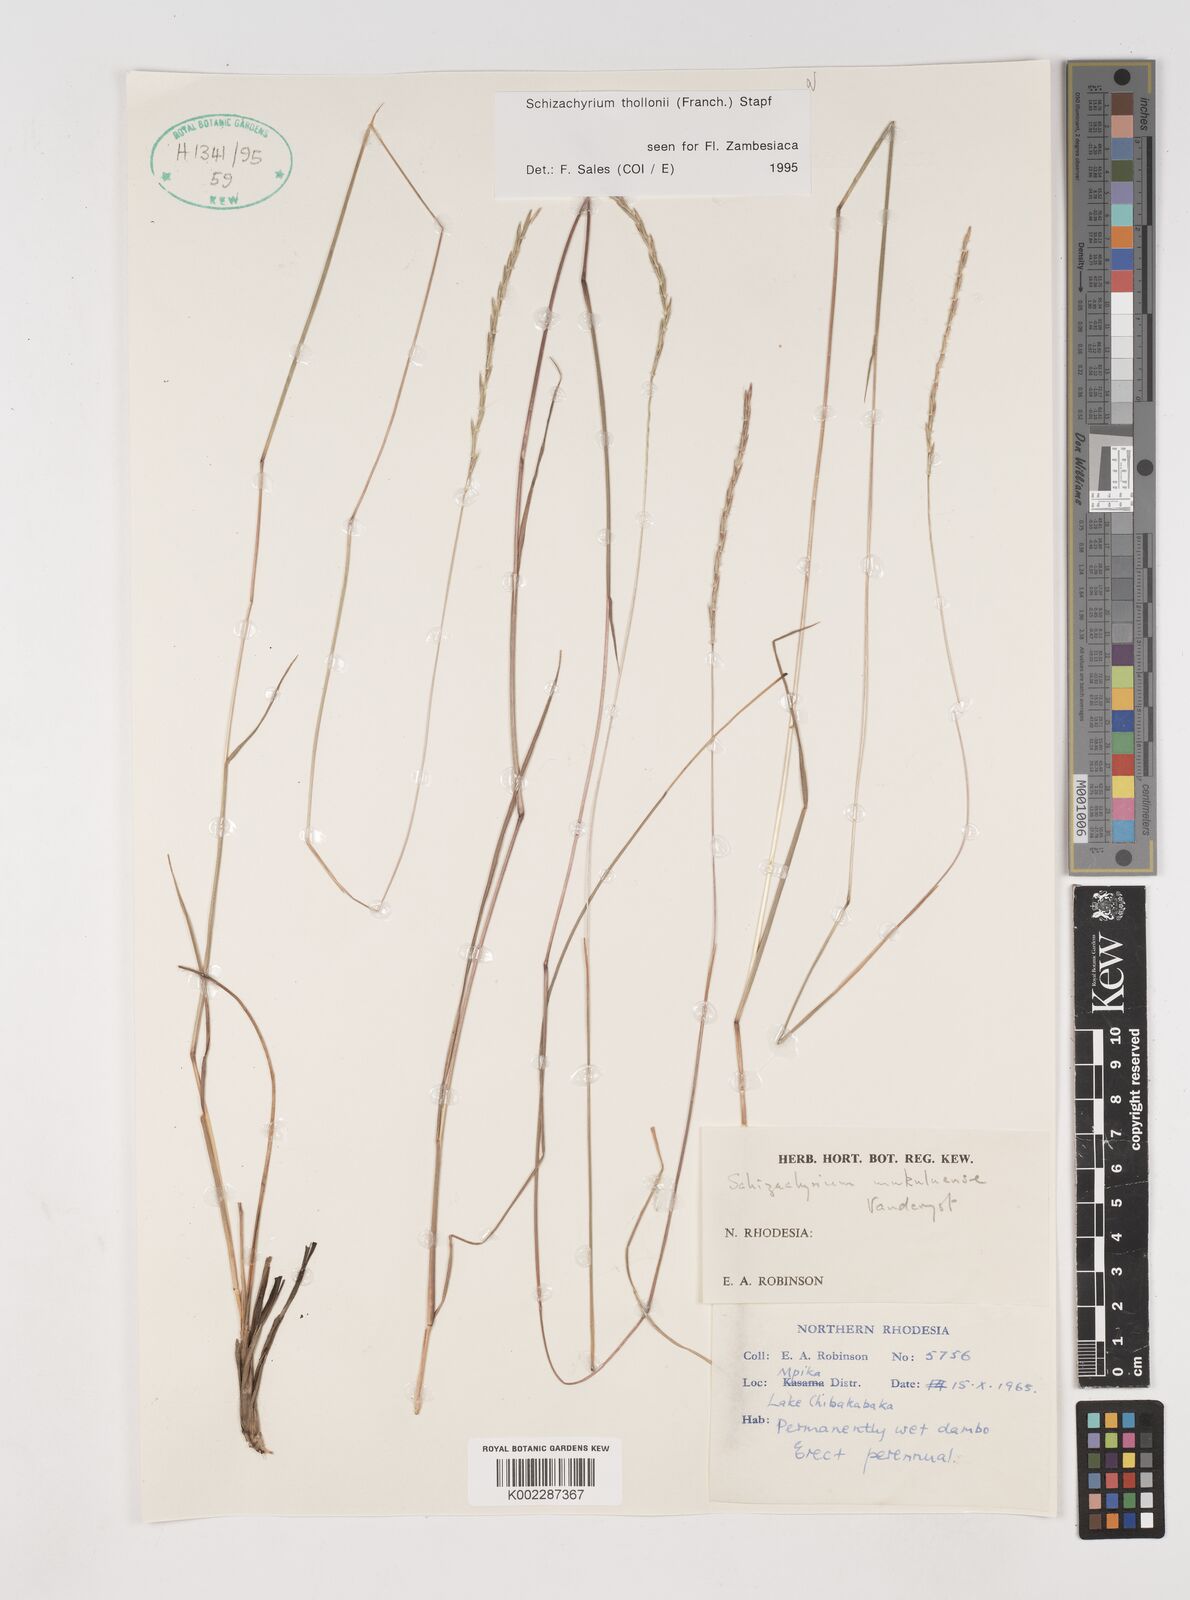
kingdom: Plantae
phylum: Tracheophyta
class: Liliopsida
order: Poales
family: Poaceae
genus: Schizachyrium
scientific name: Schizachyrium thollonii
